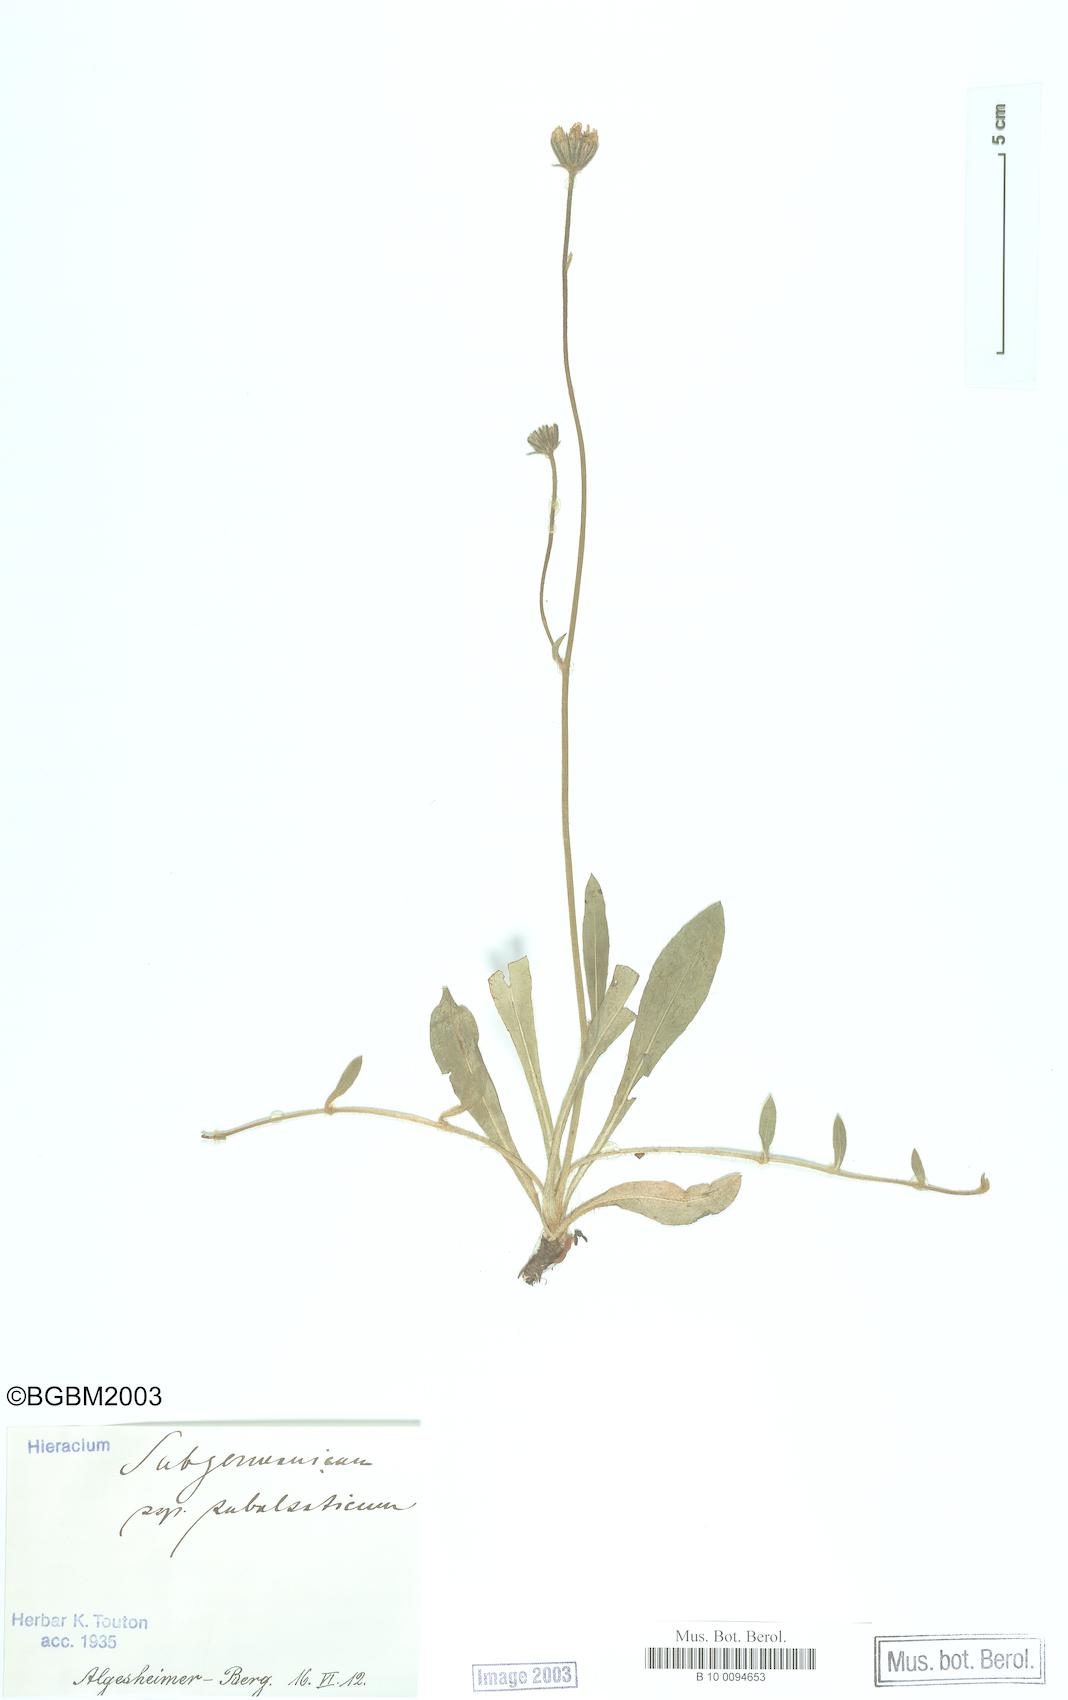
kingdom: Plantae
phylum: Tracheophyta
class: Magnoliopsida
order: Asterales
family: Asteraceae
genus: Pilosella
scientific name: Pilosella pilosellina
